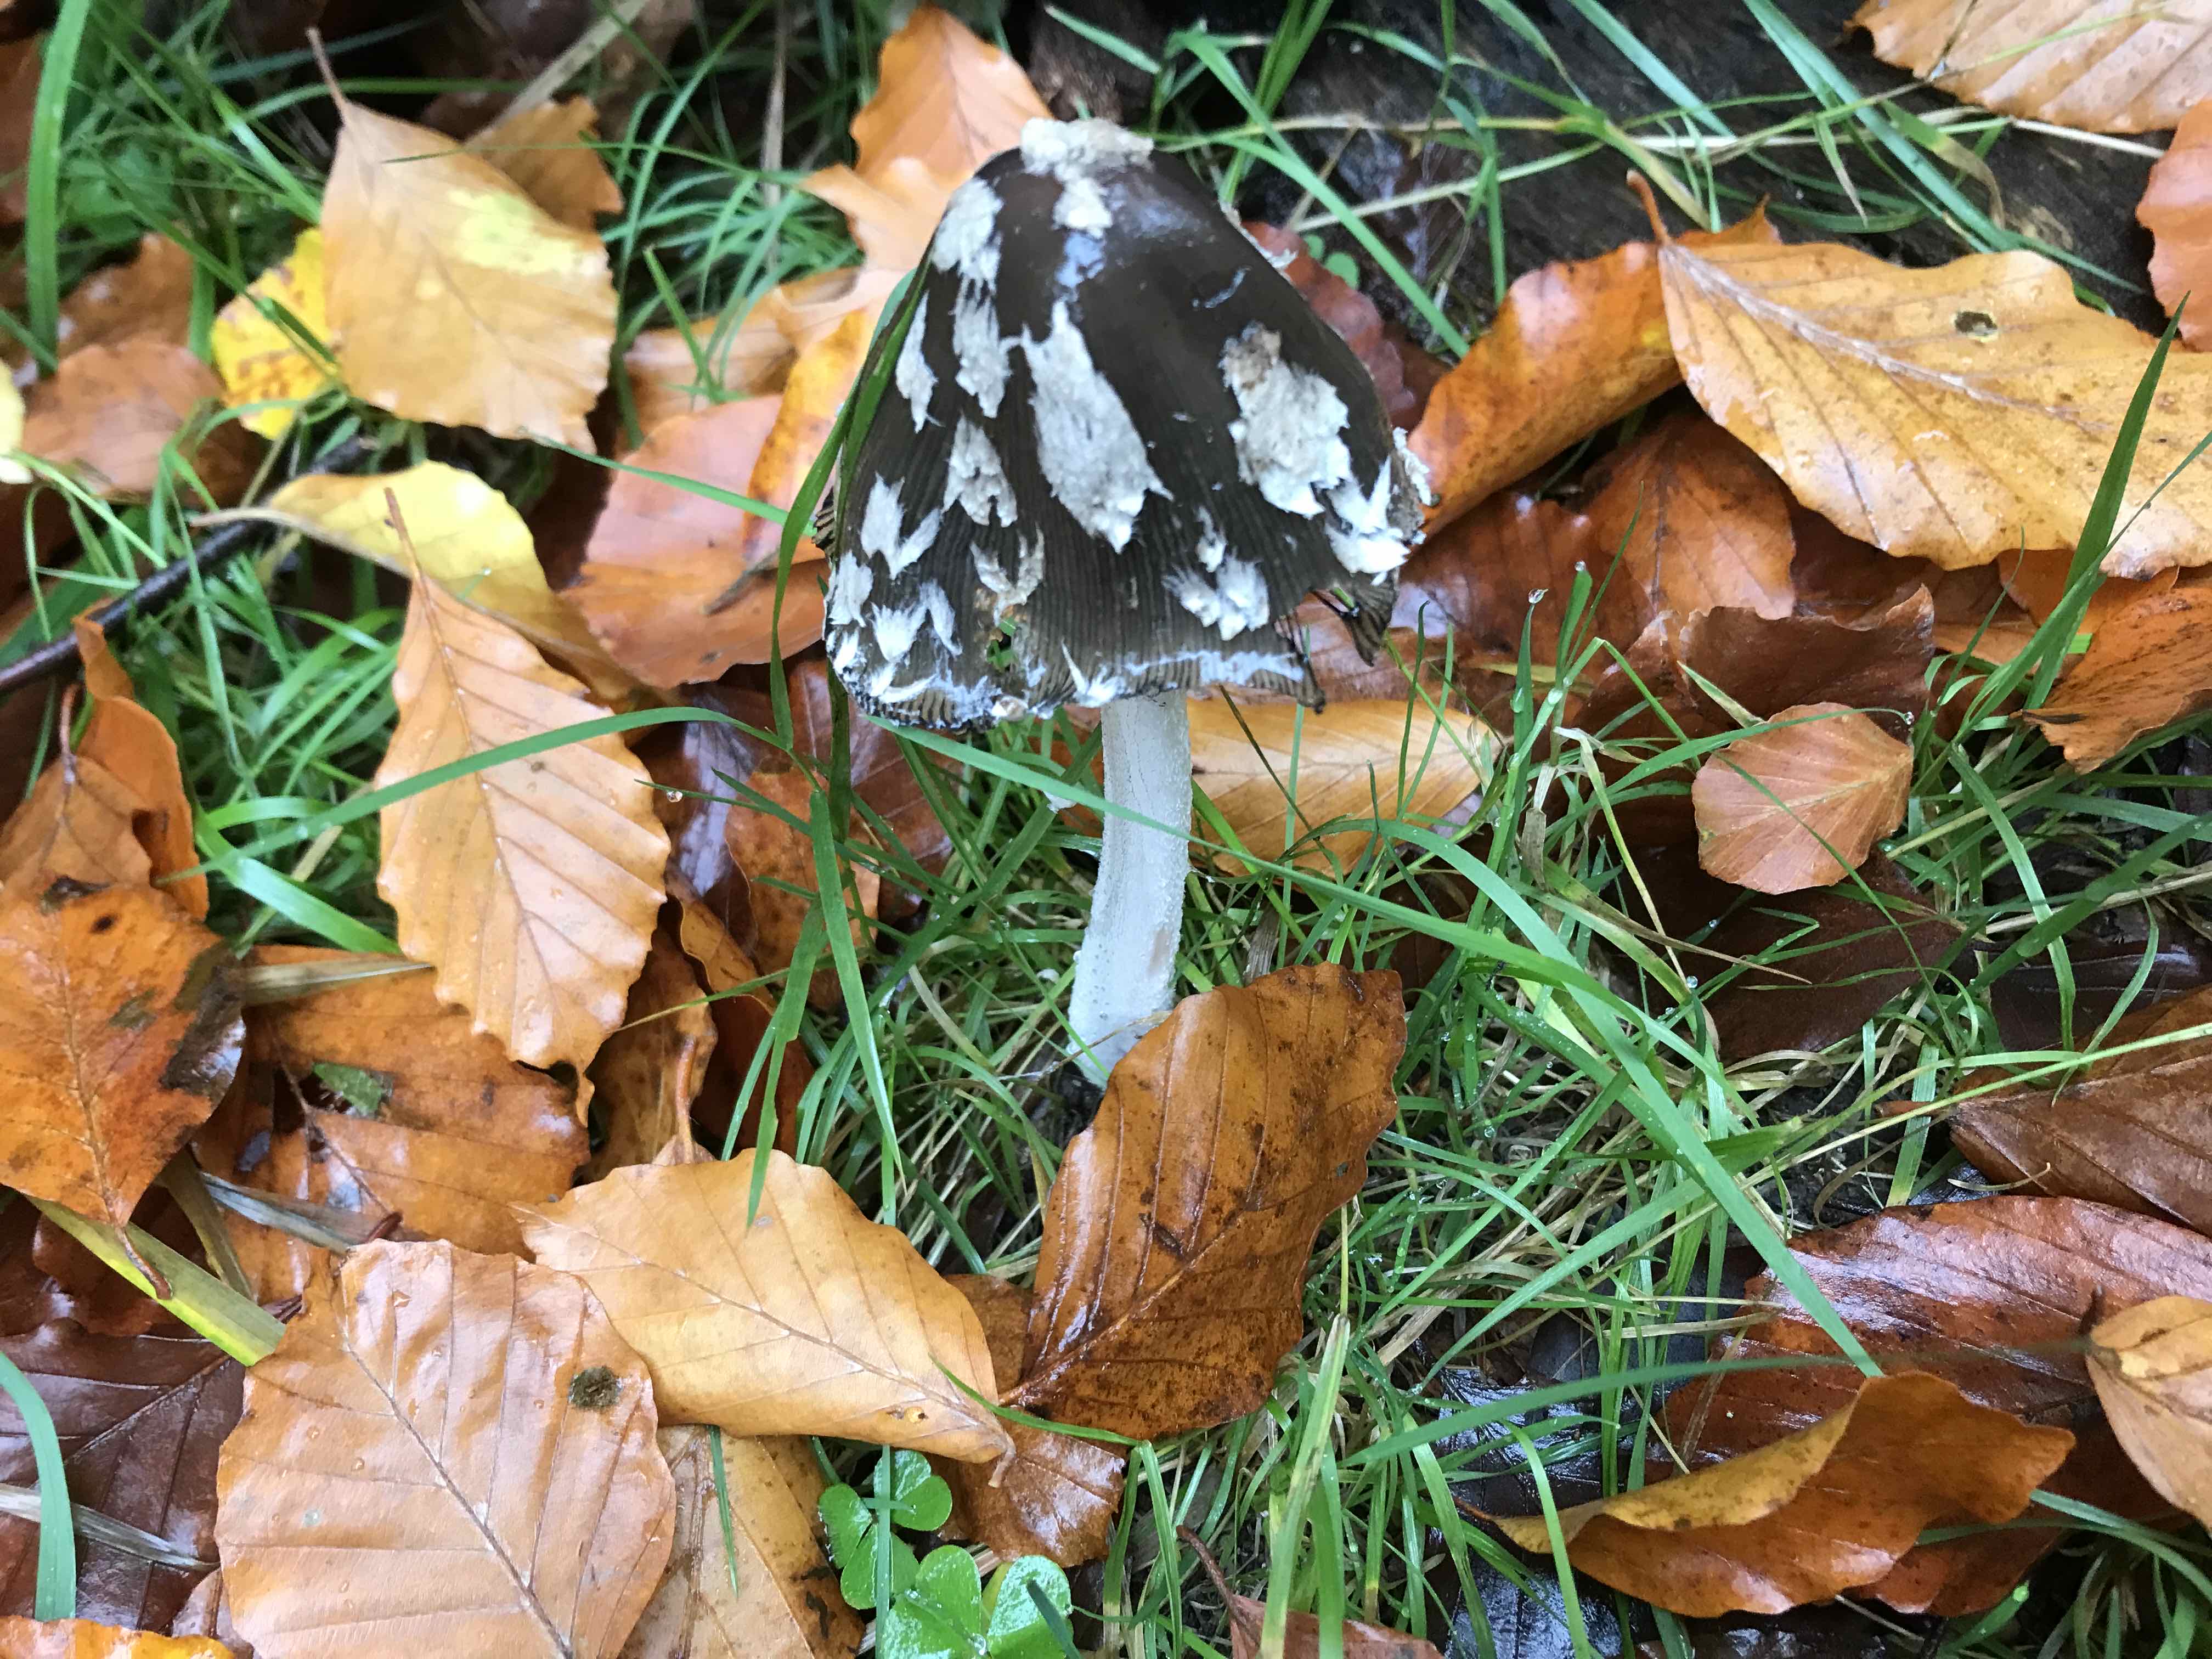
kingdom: Fungi
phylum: Basidiomycota
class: Agaricomycetes
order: Agaricales
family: Psathyrellaceae
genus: Coprinopsis
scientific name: Coprinopsis picacea
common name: skade-blækhat
